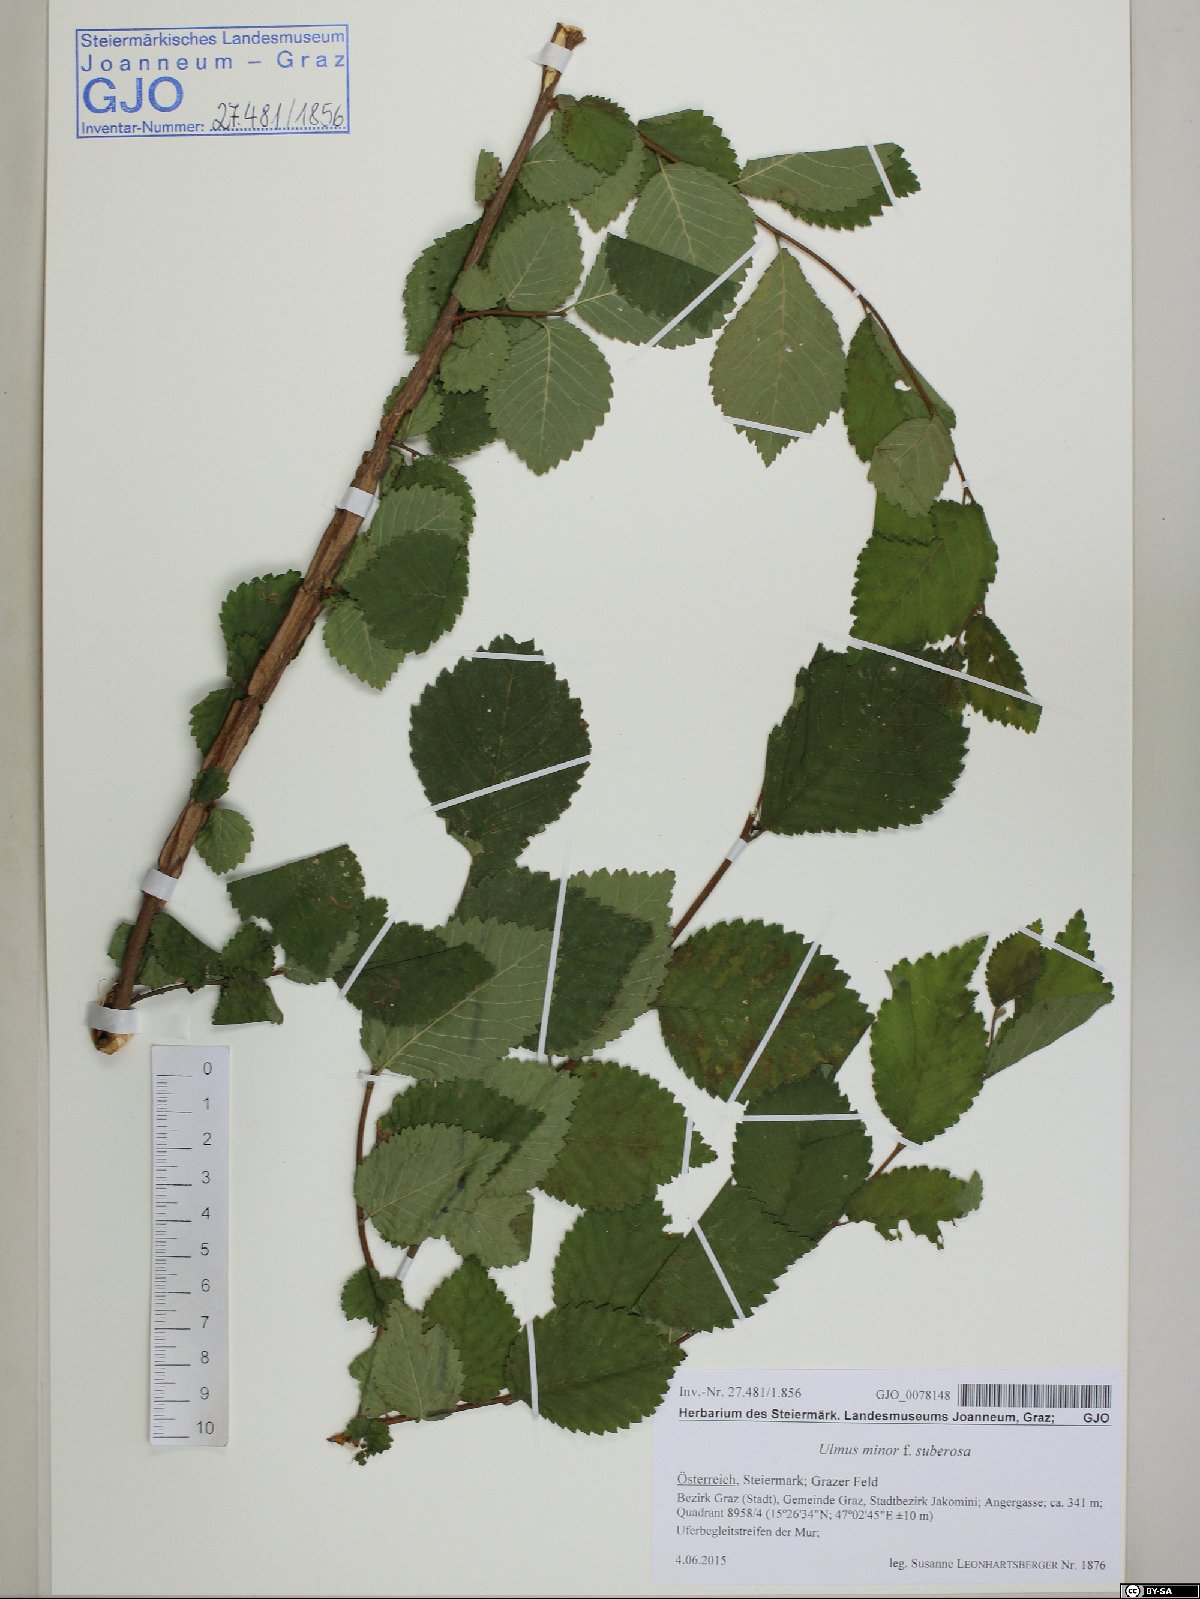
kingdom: Plantae
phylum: Tracheophyta
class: Magnoliopsida
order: Rosales
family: Ulmaceae
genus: Ulmus
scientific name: Ulmus minor
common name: Small-leaved elm
